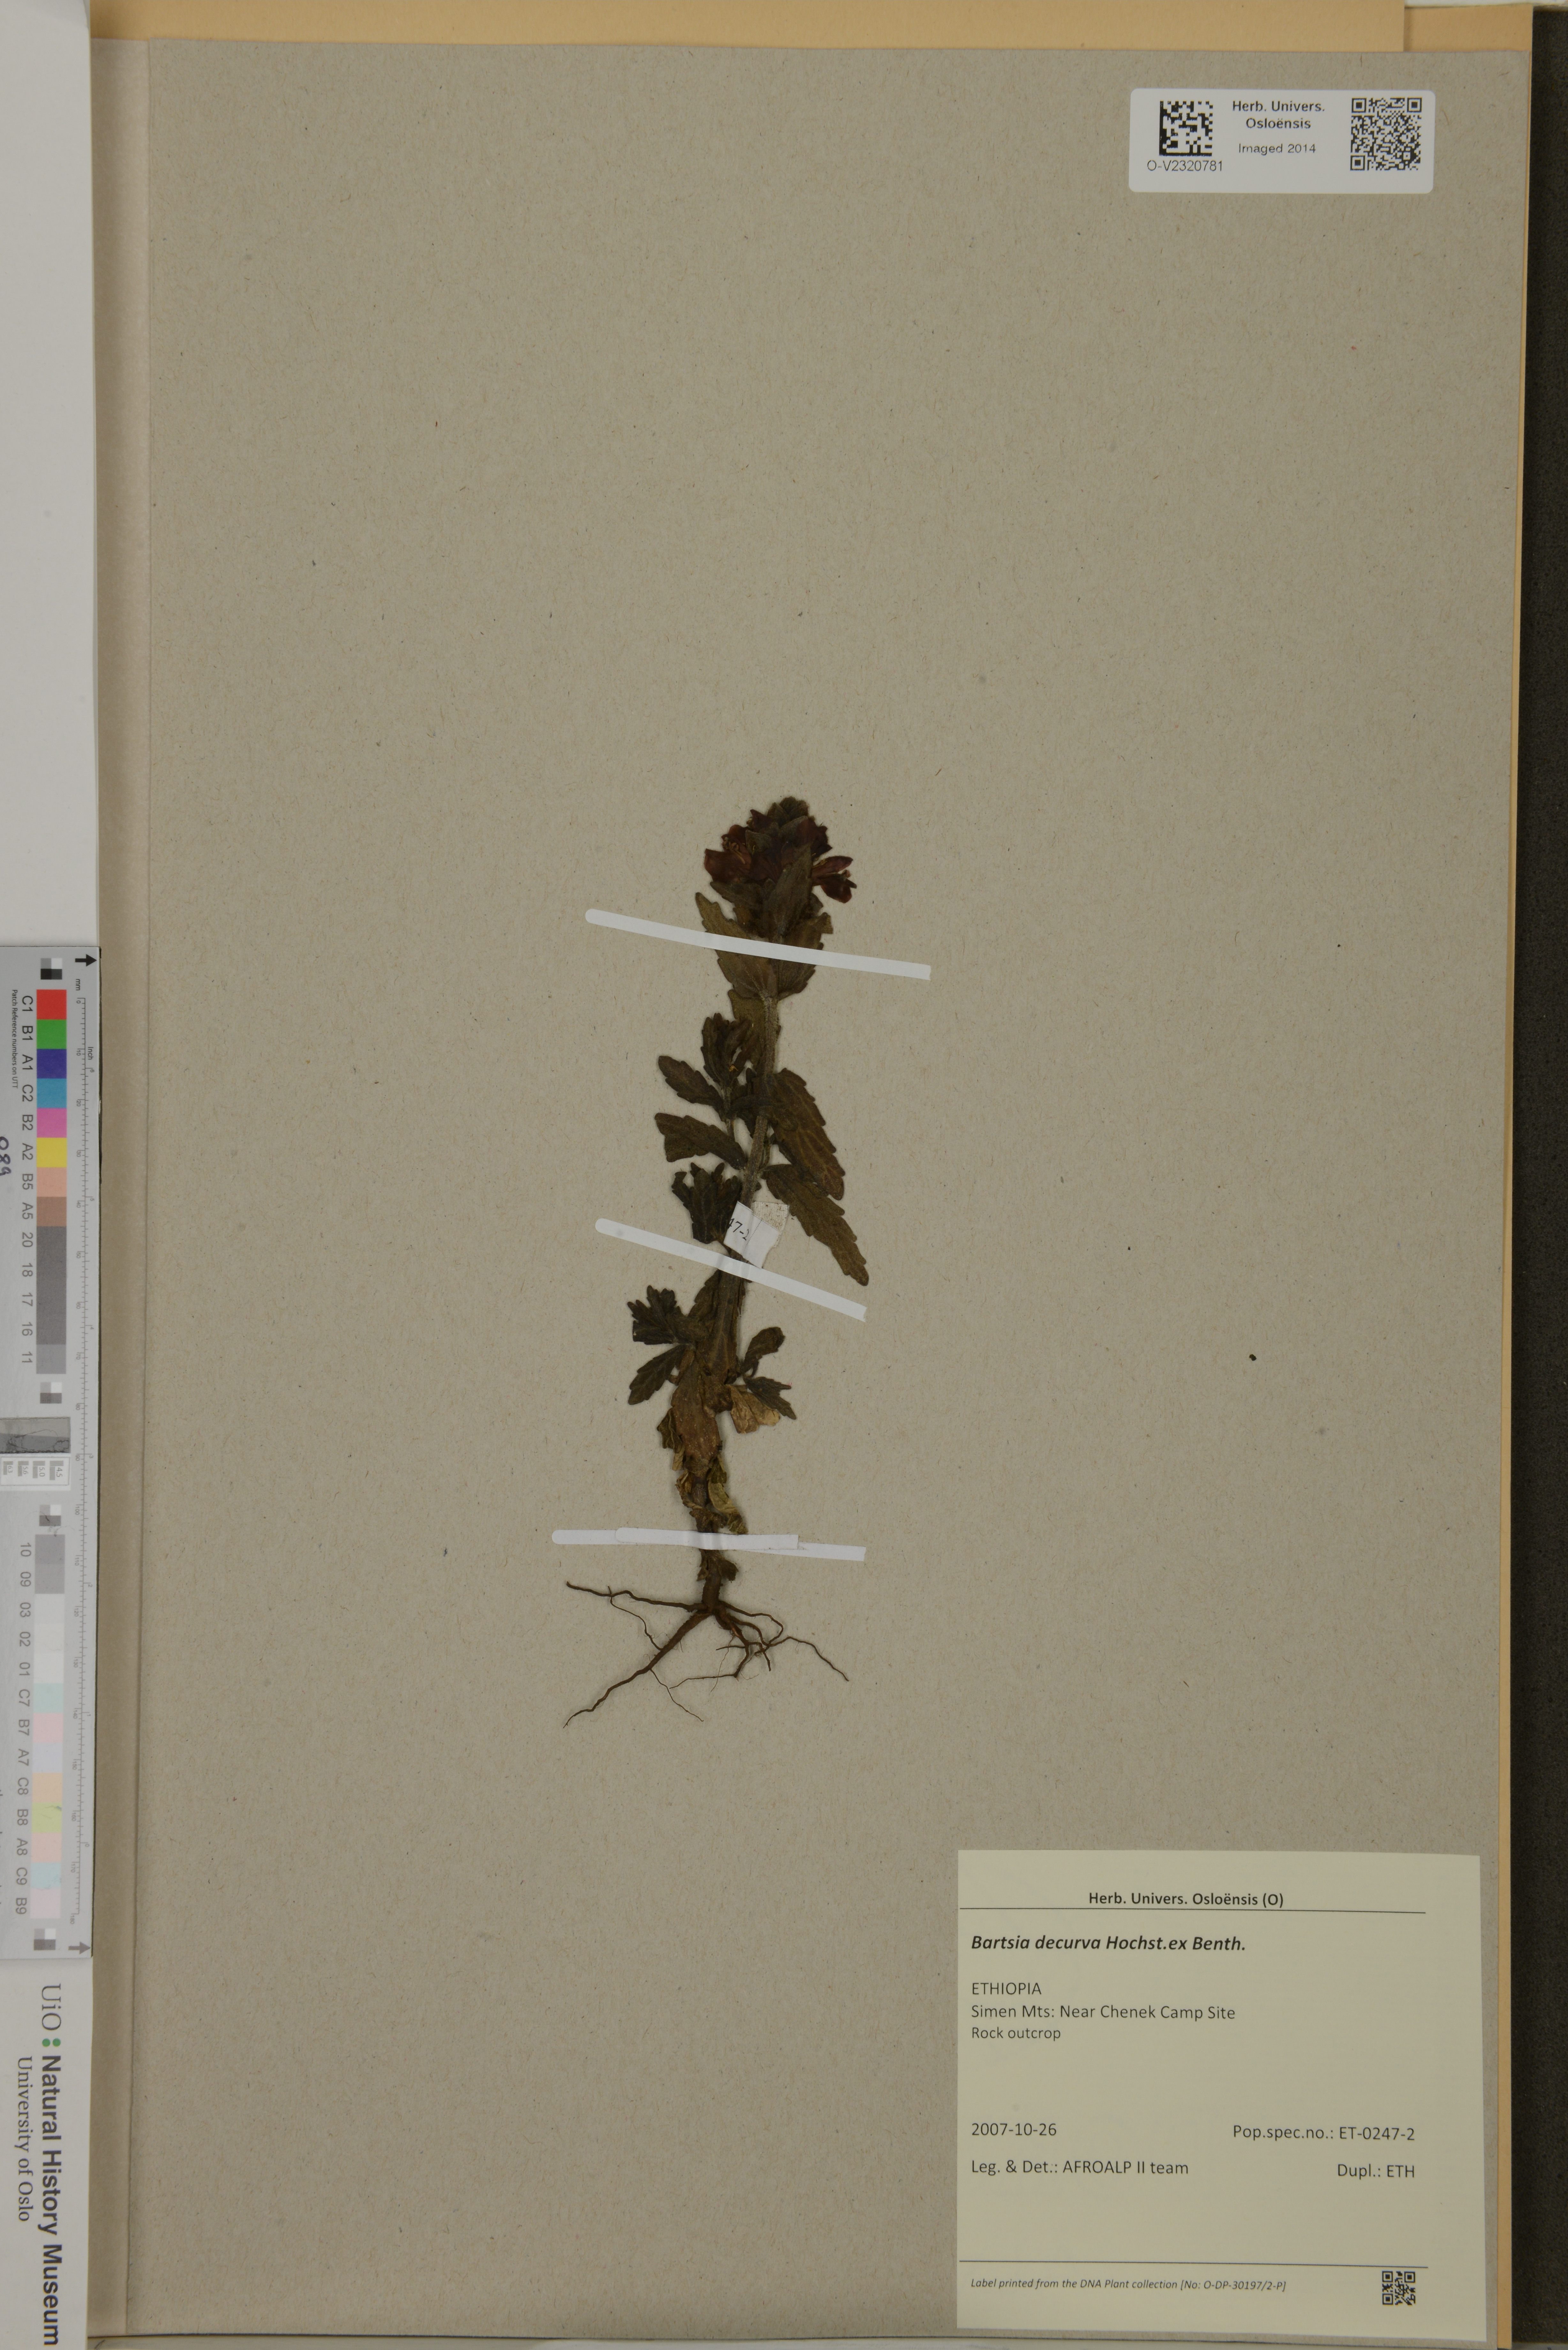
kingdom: Plantae
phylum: Tracheophyta
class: Magnoliopsida
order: Lamiales
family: Orobanchaceae
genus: Hedbergia
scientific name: Hedbergia decurva
